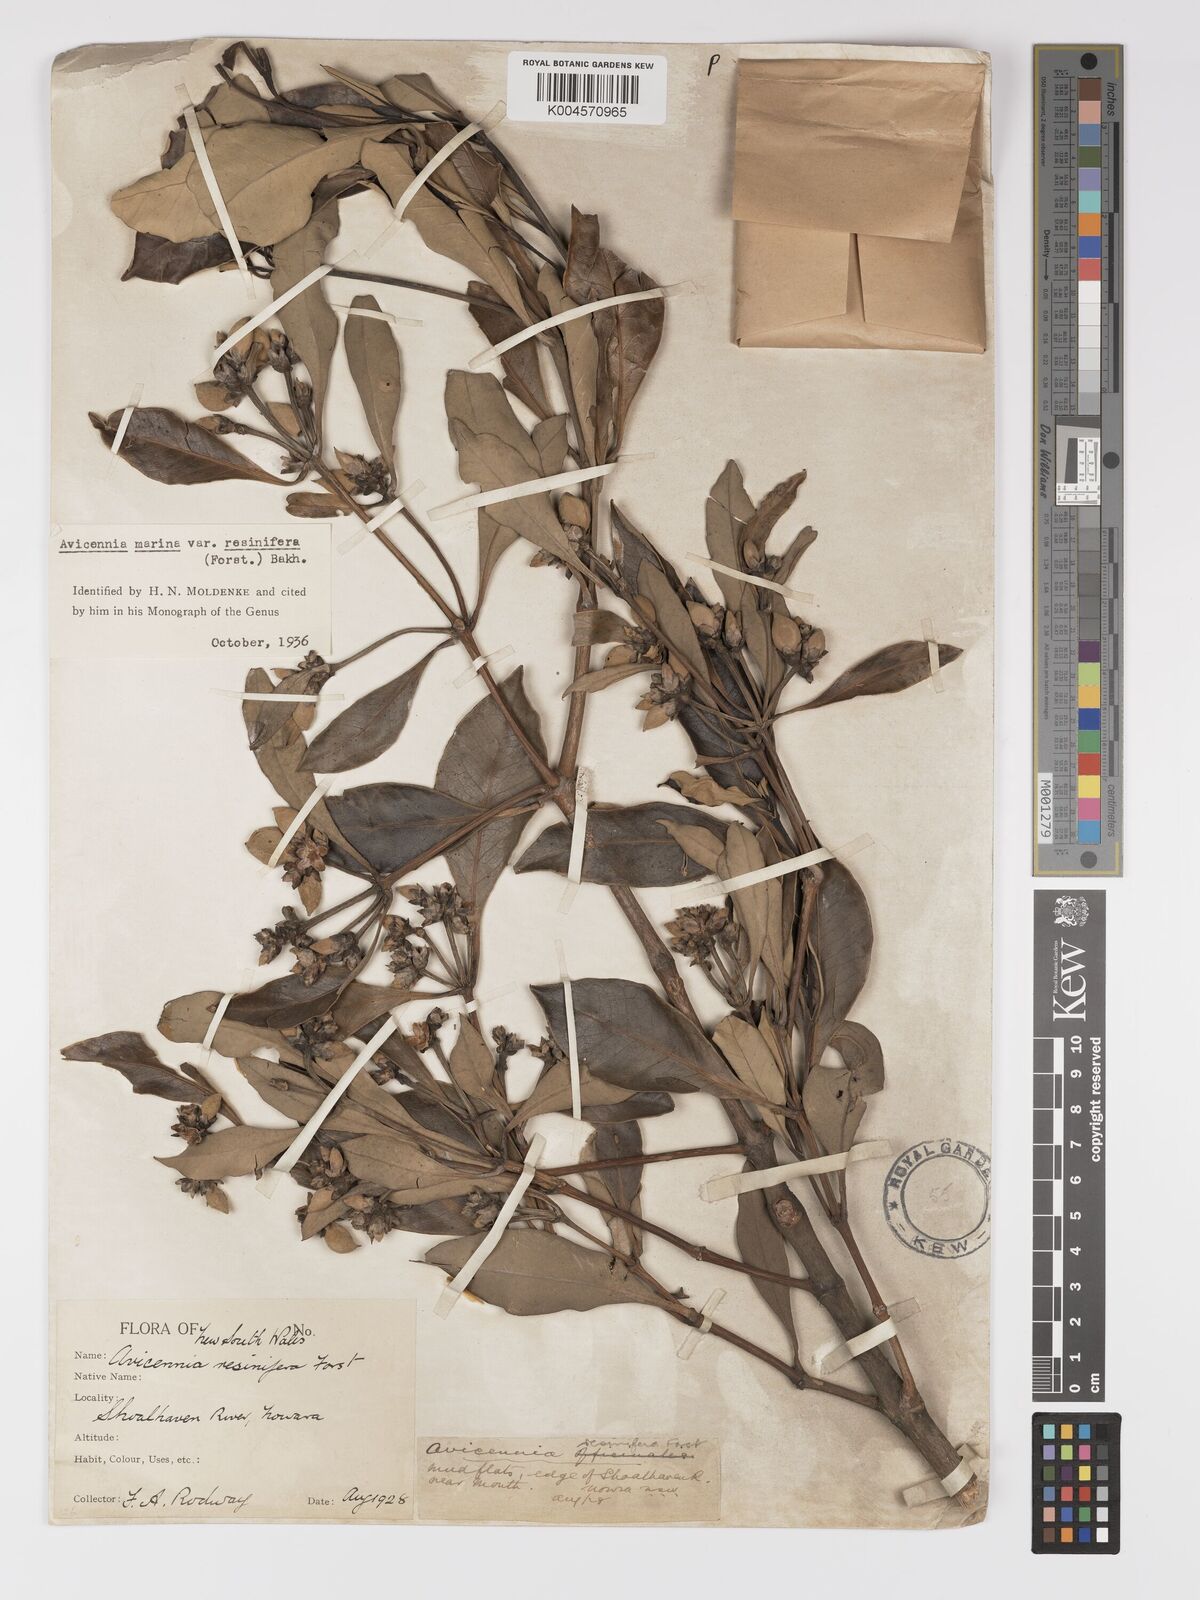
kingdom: Plantae
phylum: Tracheophyta
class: Magnoliopsida
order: Lamiales
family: Acanthaceae
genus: Avicennia
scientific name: Avicennia marina
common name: Gray mangrove
